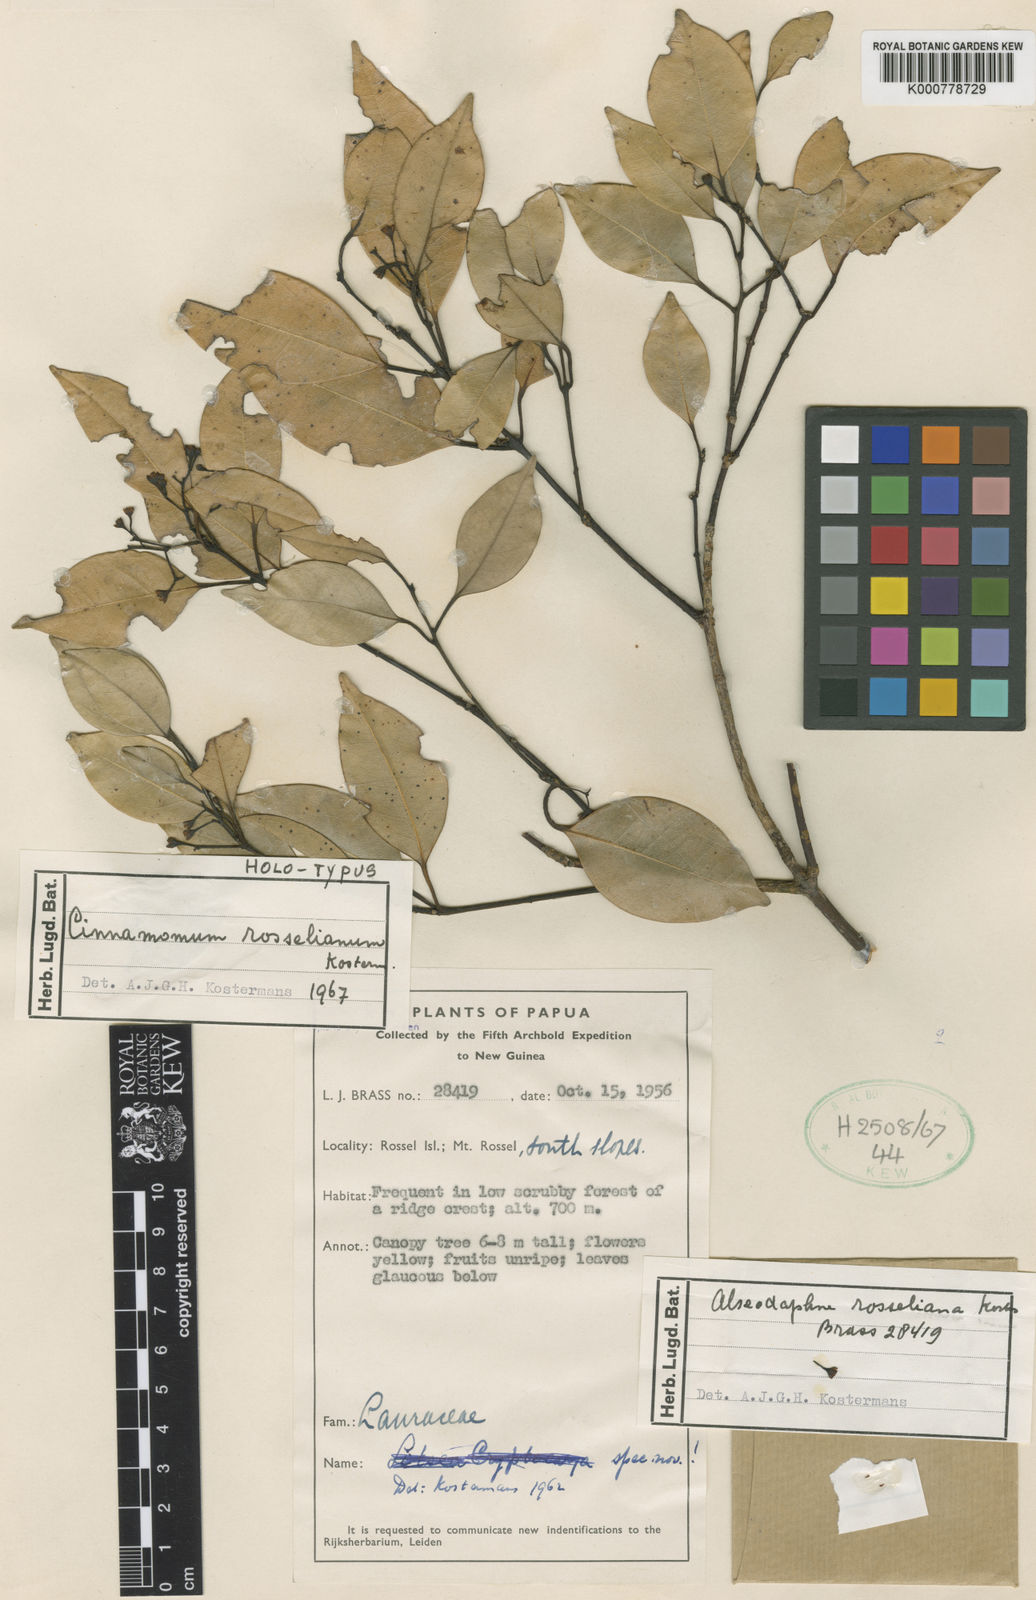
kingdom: Plantae
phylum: Tracheophyta
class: Magnoliopsida
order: Laurales
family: Lauraceae
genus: Cinnamomum
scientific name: Cinnamomum rosselianum
